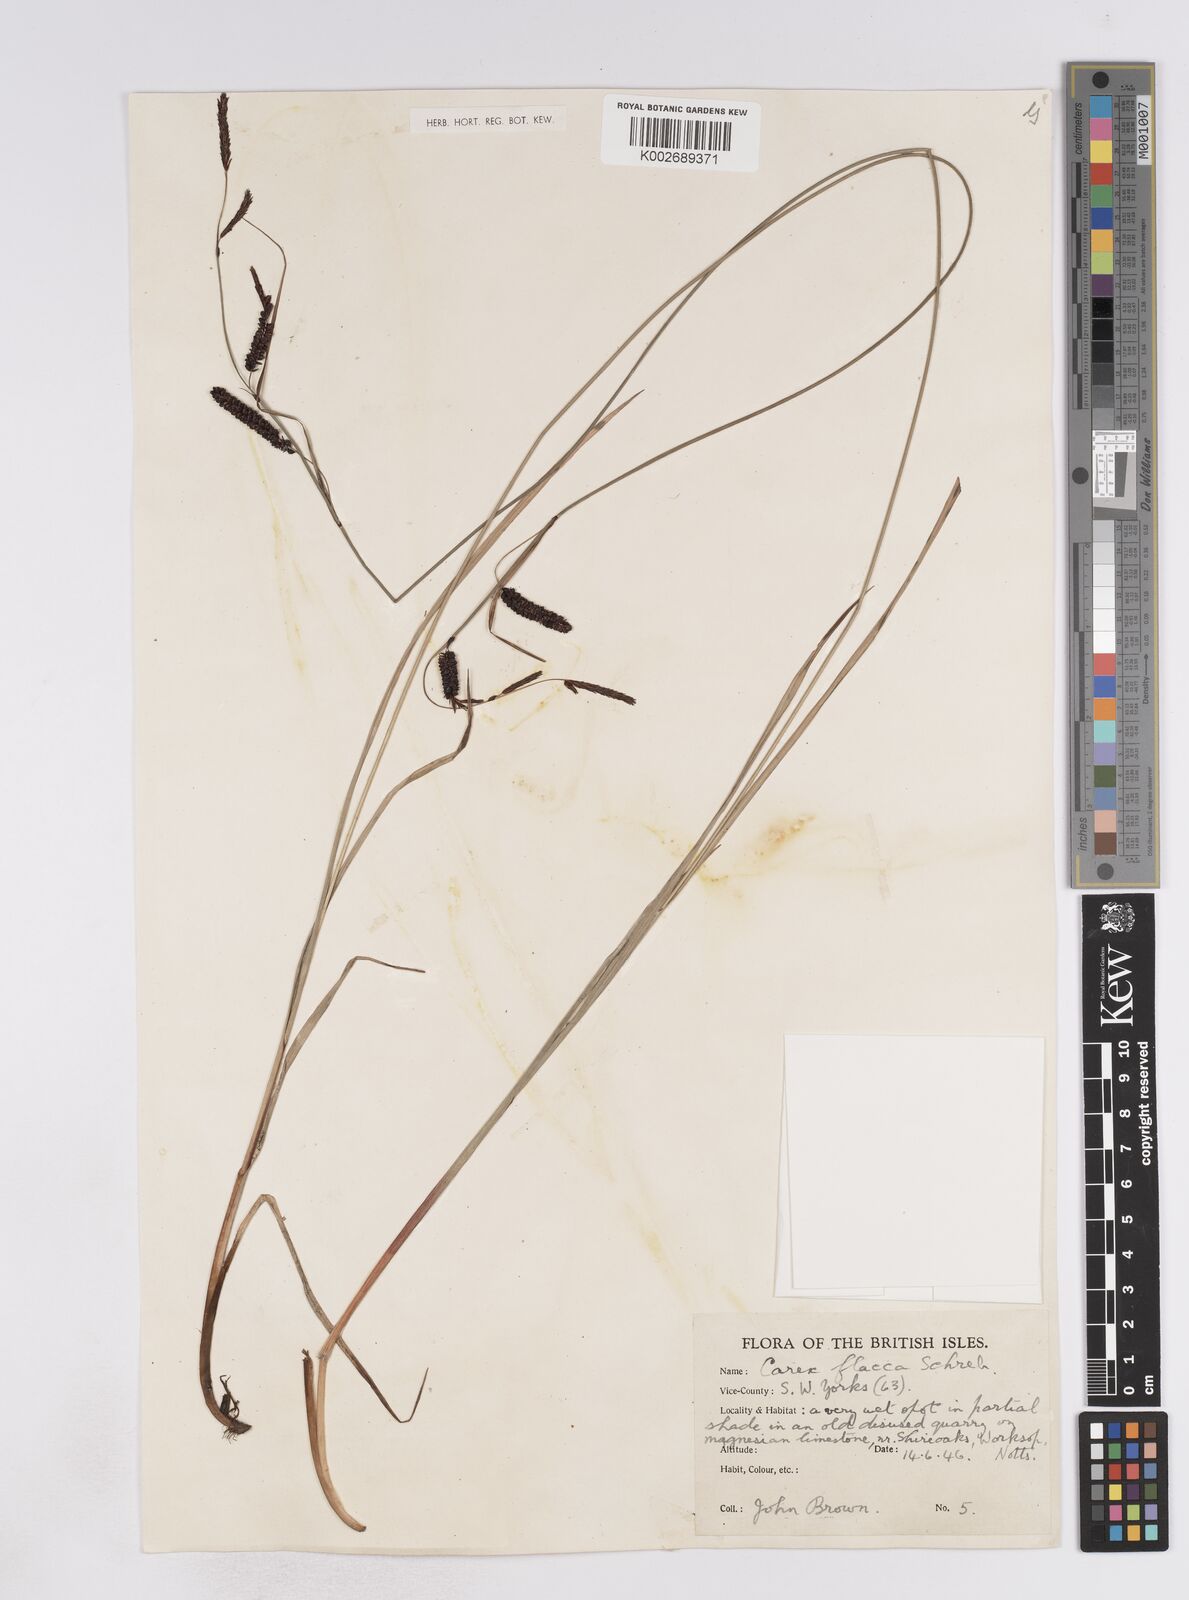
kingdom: Plantae
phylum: Tracheophyta
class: Liliopsida
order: Poales
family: Cyperaceae
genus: Carex
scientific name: Carex flacca
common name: Glaucous sedge
